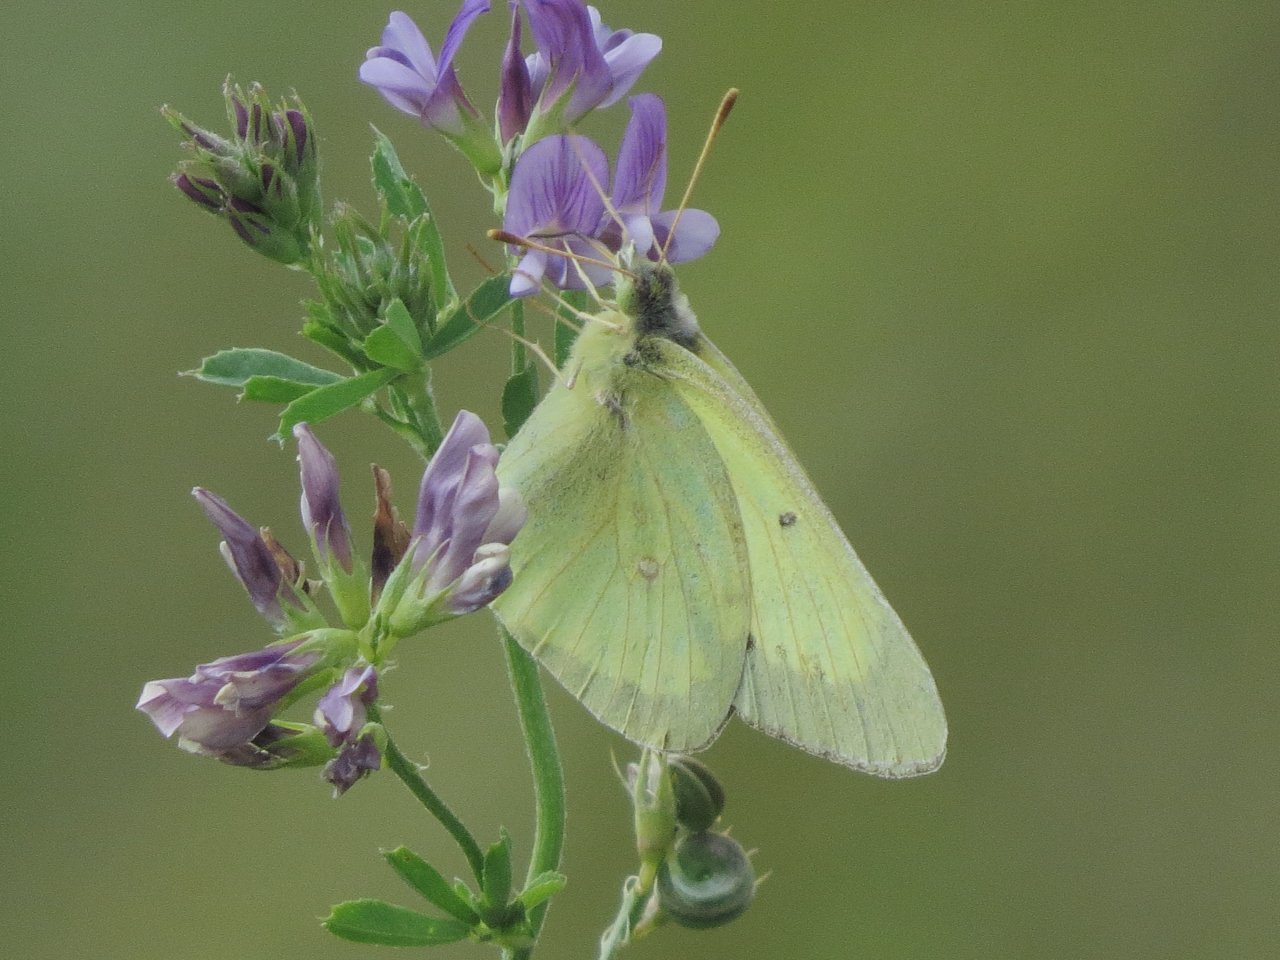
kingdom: Animalia
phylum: Arthropoda
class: Insecta
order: Lepidoptera
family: Pieridae
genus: Colias
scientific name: Colias philodice
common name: Clouded Sulphur
